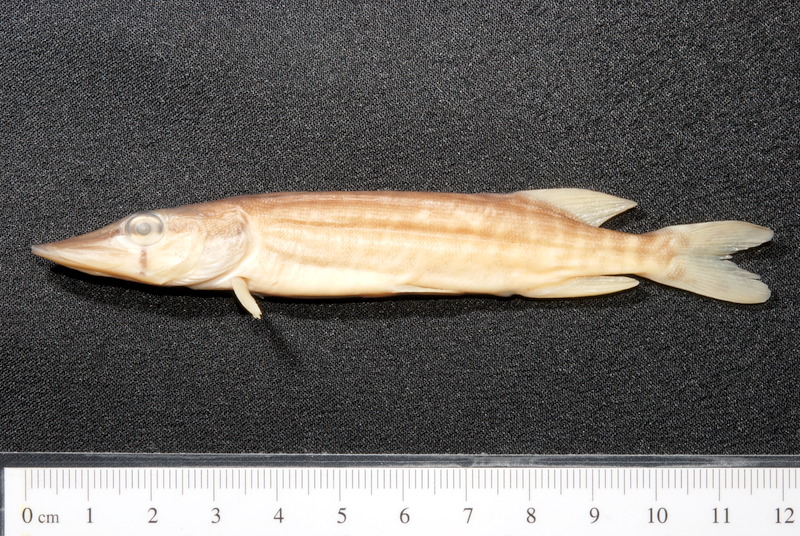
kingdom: Animalia
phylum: Chordata
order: Esociformes
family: Esocidae
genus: Esox
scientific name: Esox lucius
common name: Northern pike
